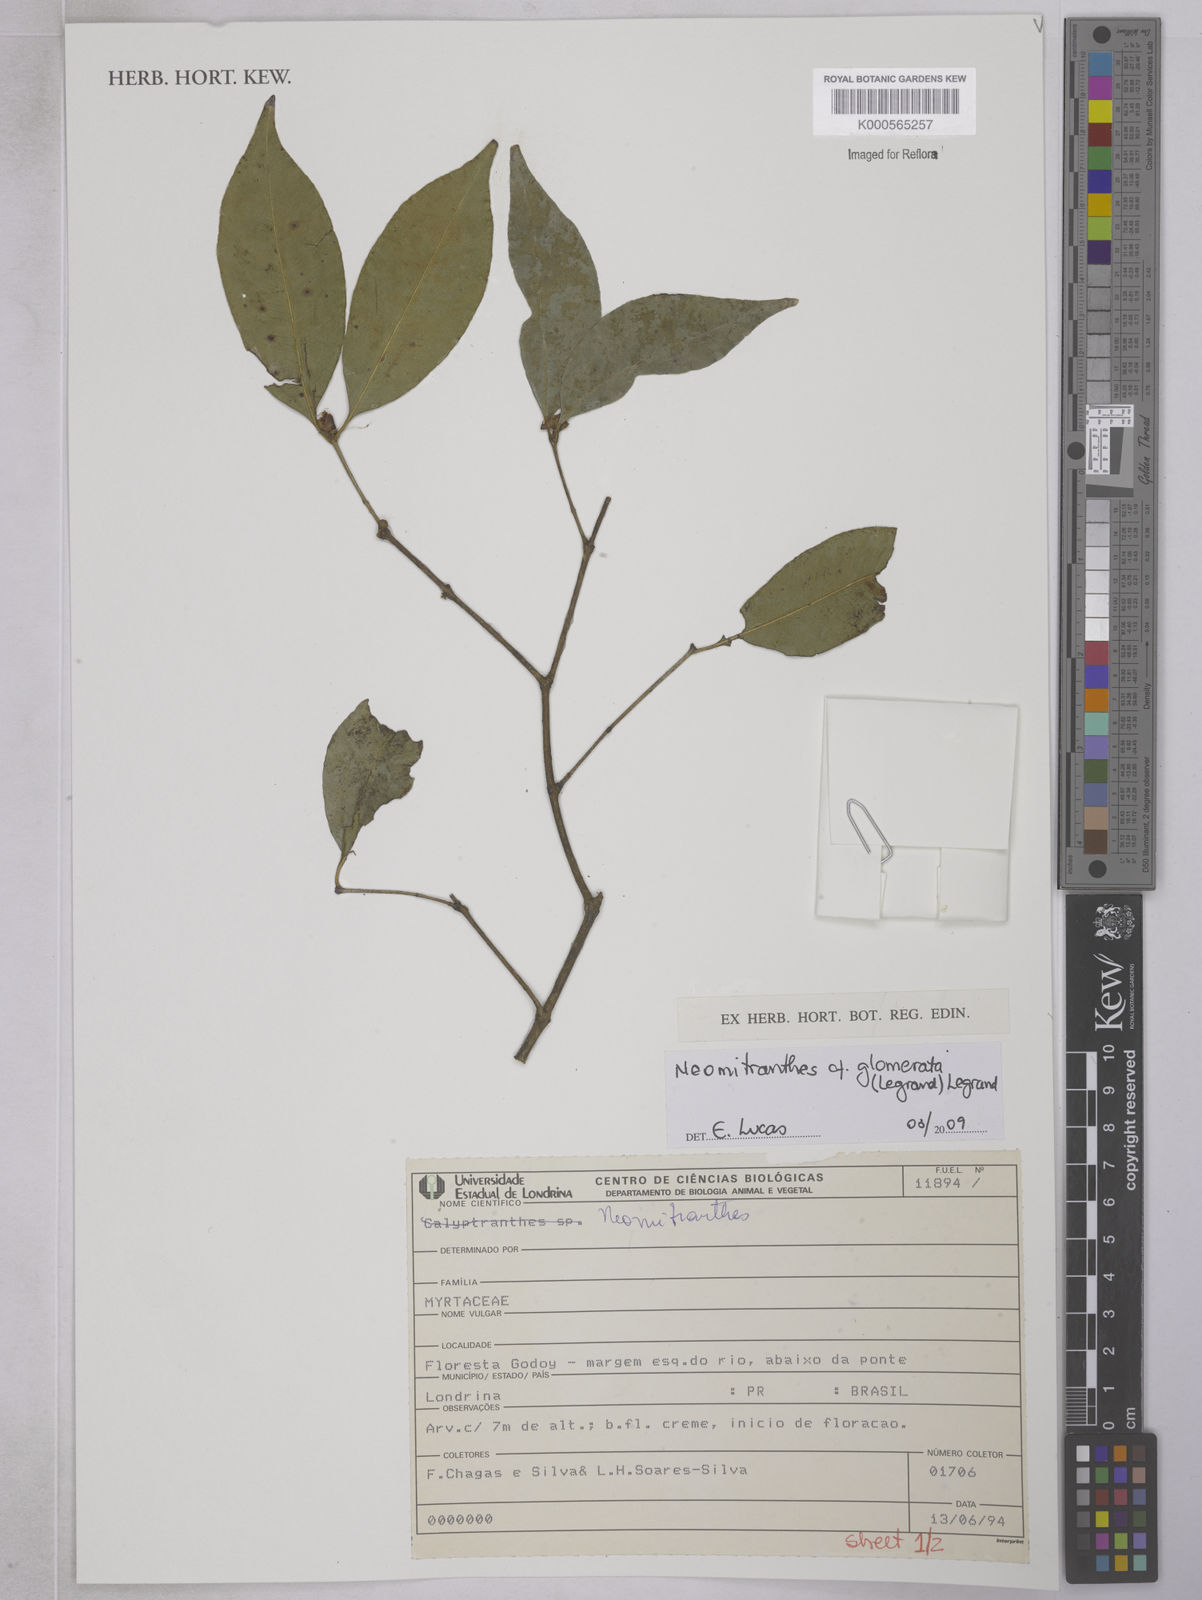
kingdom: Plantae
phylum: Tracheophyta
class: Magnoliopsida
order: Myrtales
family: Myrtaceae
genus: Neomitranthes
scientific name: Neomitranthes
